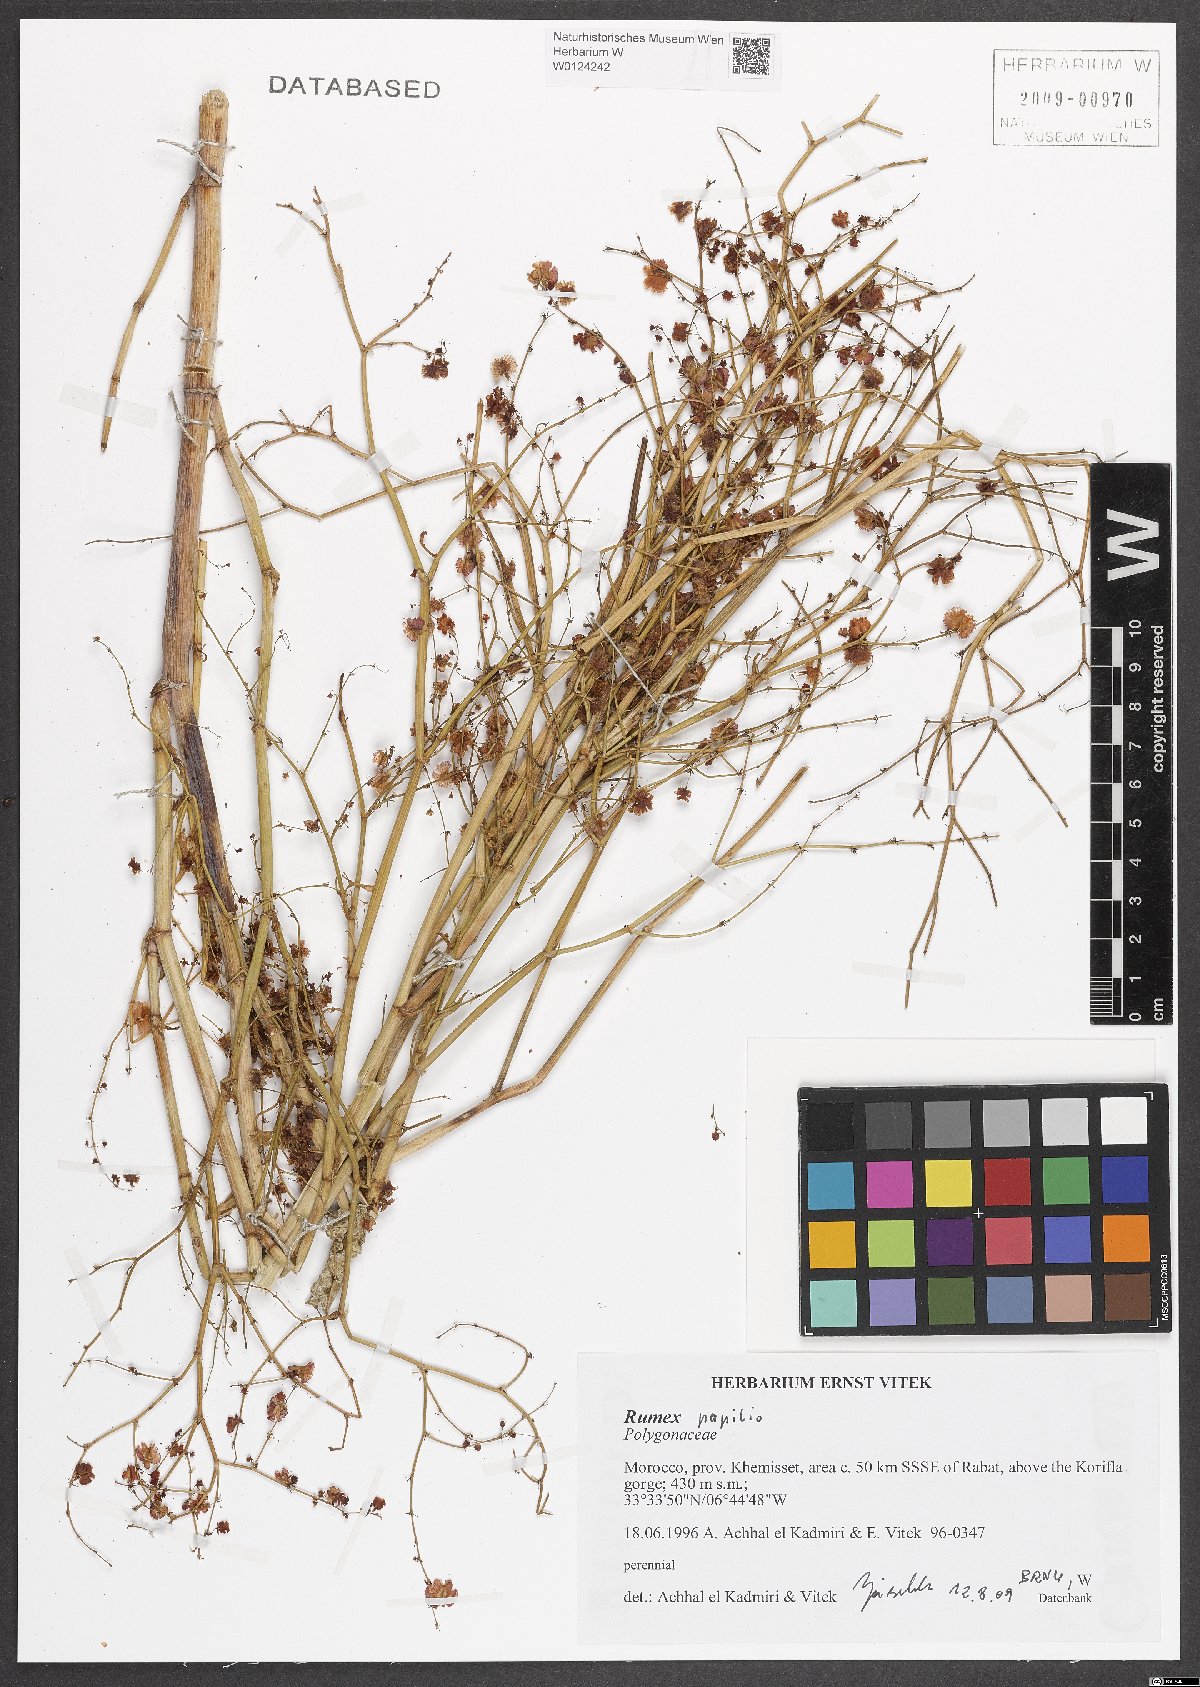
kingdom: Plantae
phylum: Tracheophyta
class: Magnoliopsida
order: Caryophyllales
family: Polygonaceae
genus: Rumex
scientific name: Rumex papilio
